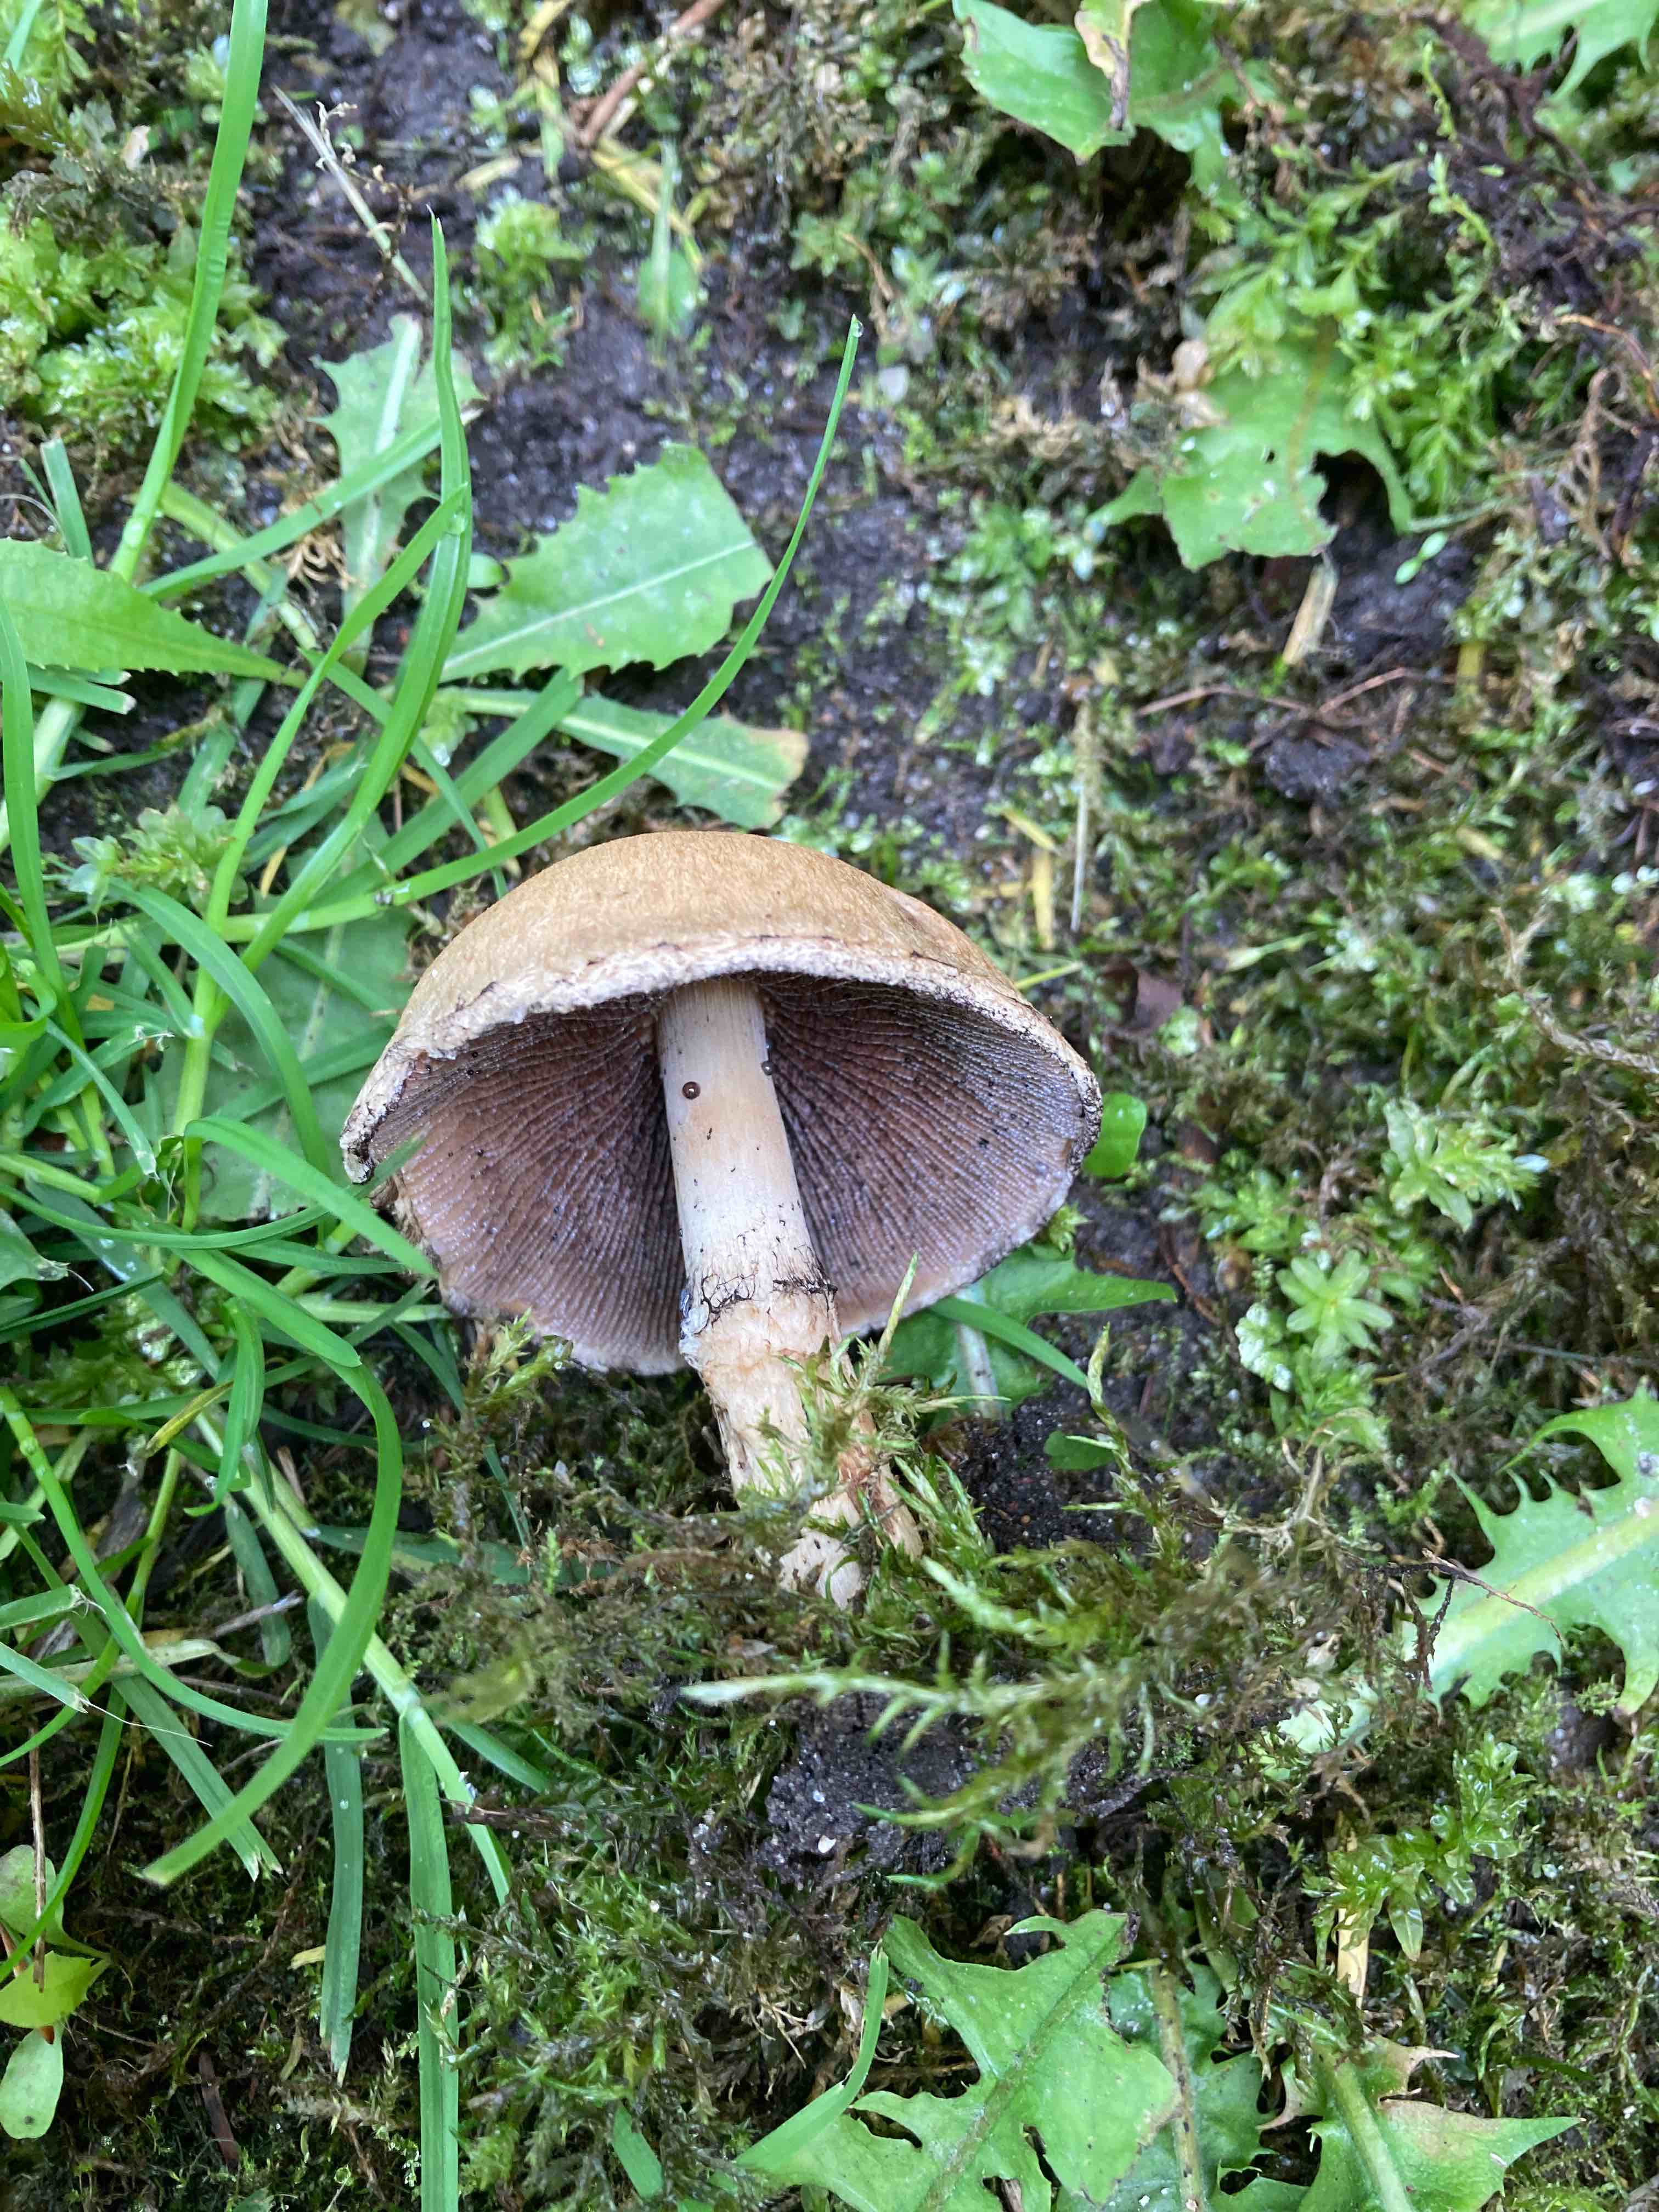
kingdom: Fungi
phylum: Basidiomycota
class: Agaricomycetes
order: Agaricales
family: Psathyrellaceae
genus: Lacrymaria
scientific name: Lacrymaria lacrymabunda
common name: grædende mørkhat
